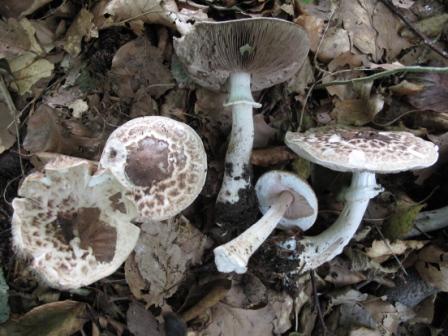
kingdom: Fungi
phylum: Basidiomycota
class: Agaricomycetes
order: Agaricales
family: Agaricaceae
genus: Agaricus
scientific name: Agaricus impudicus
